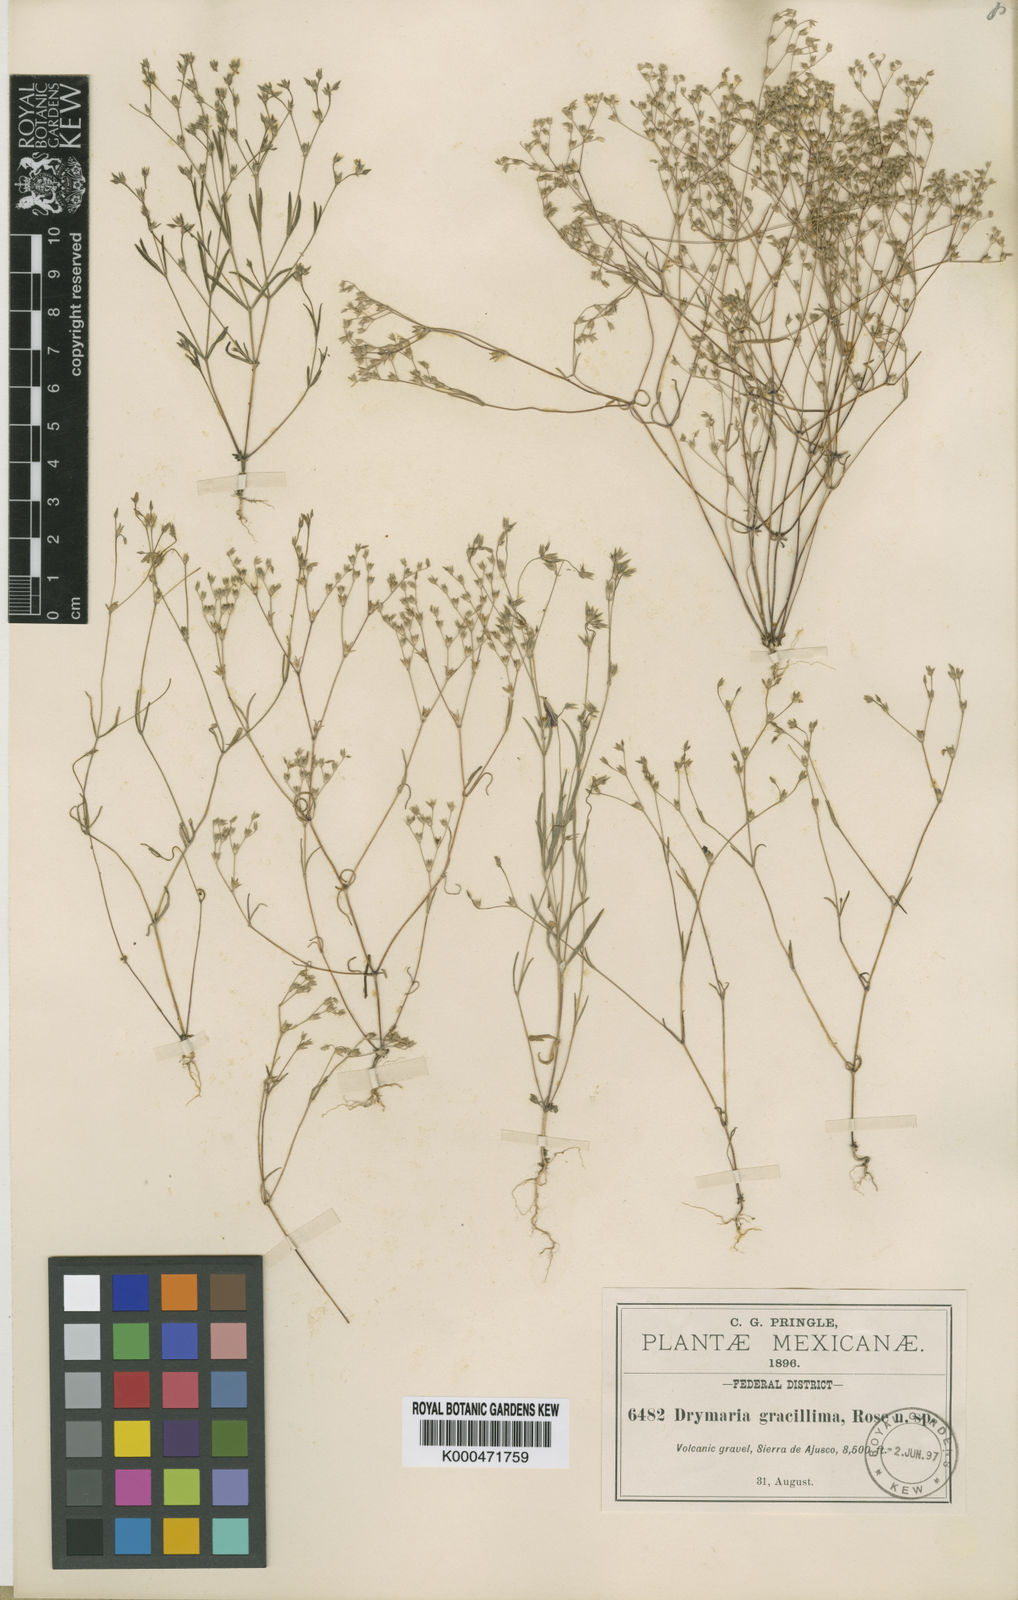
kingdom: Plantae
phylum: Tracheophyta
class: Magnoliopsida
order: Caryophyllales
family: Caryophyllaceae
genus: Drymaria
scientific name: Drymaria leptophylla
